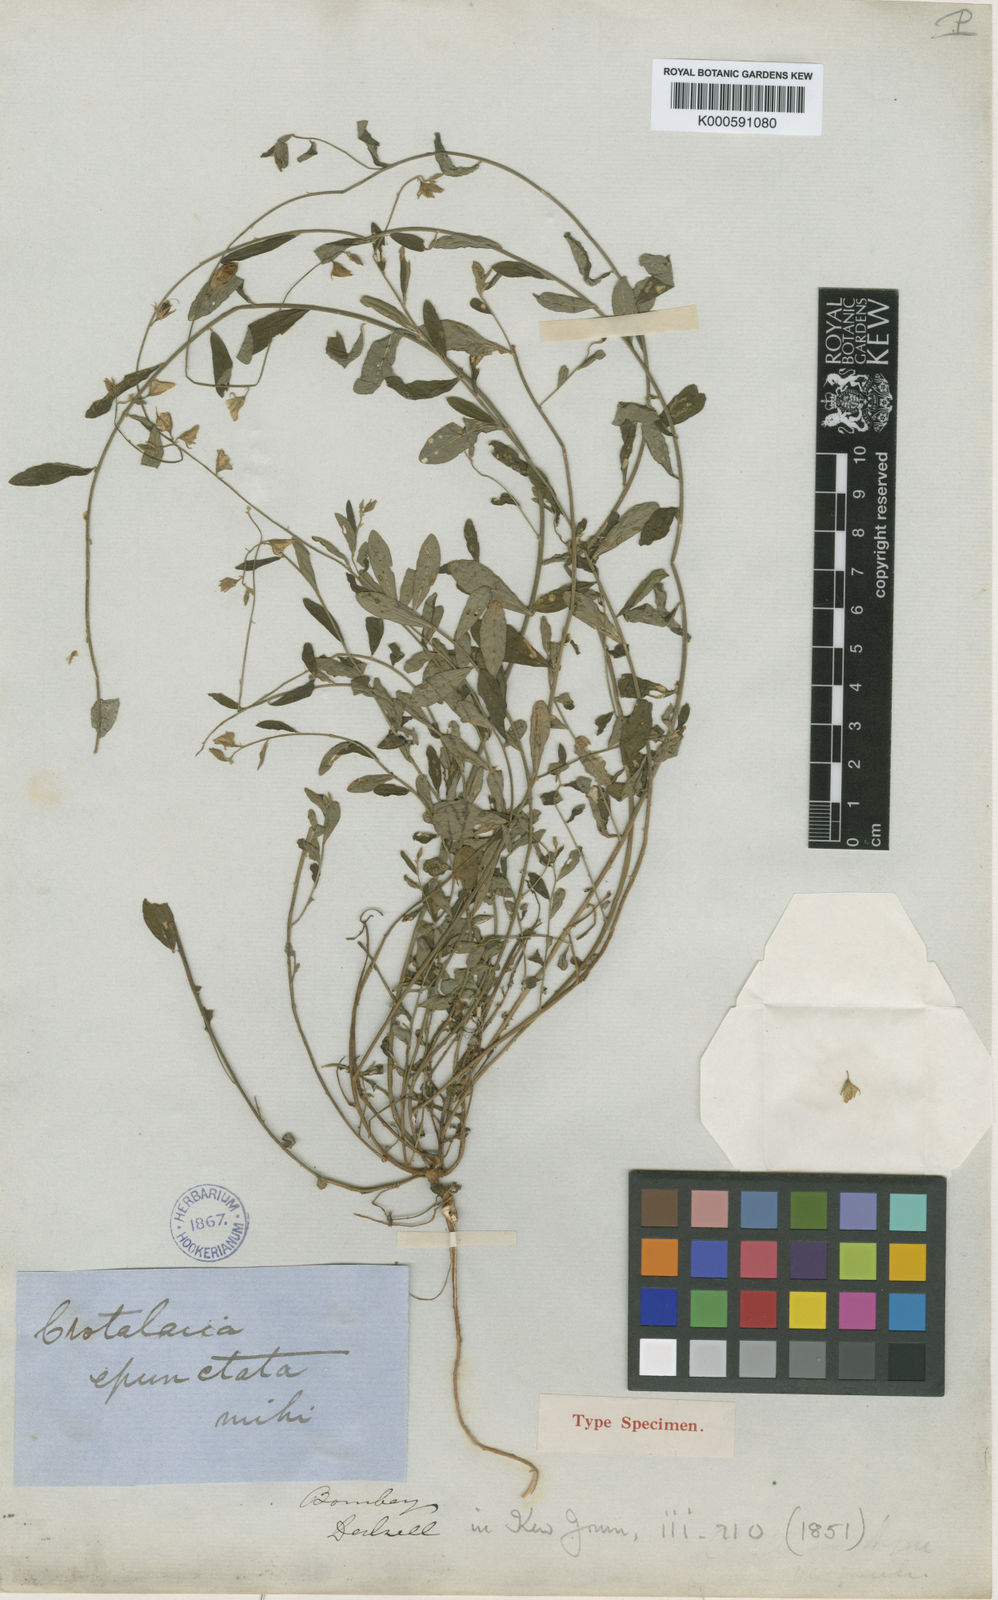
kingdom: Plantae
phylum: Tracheophyta
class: Magnoliopsida
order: Fabales
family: Fabaceae
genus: Crotalaria
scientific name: Crotalaria
